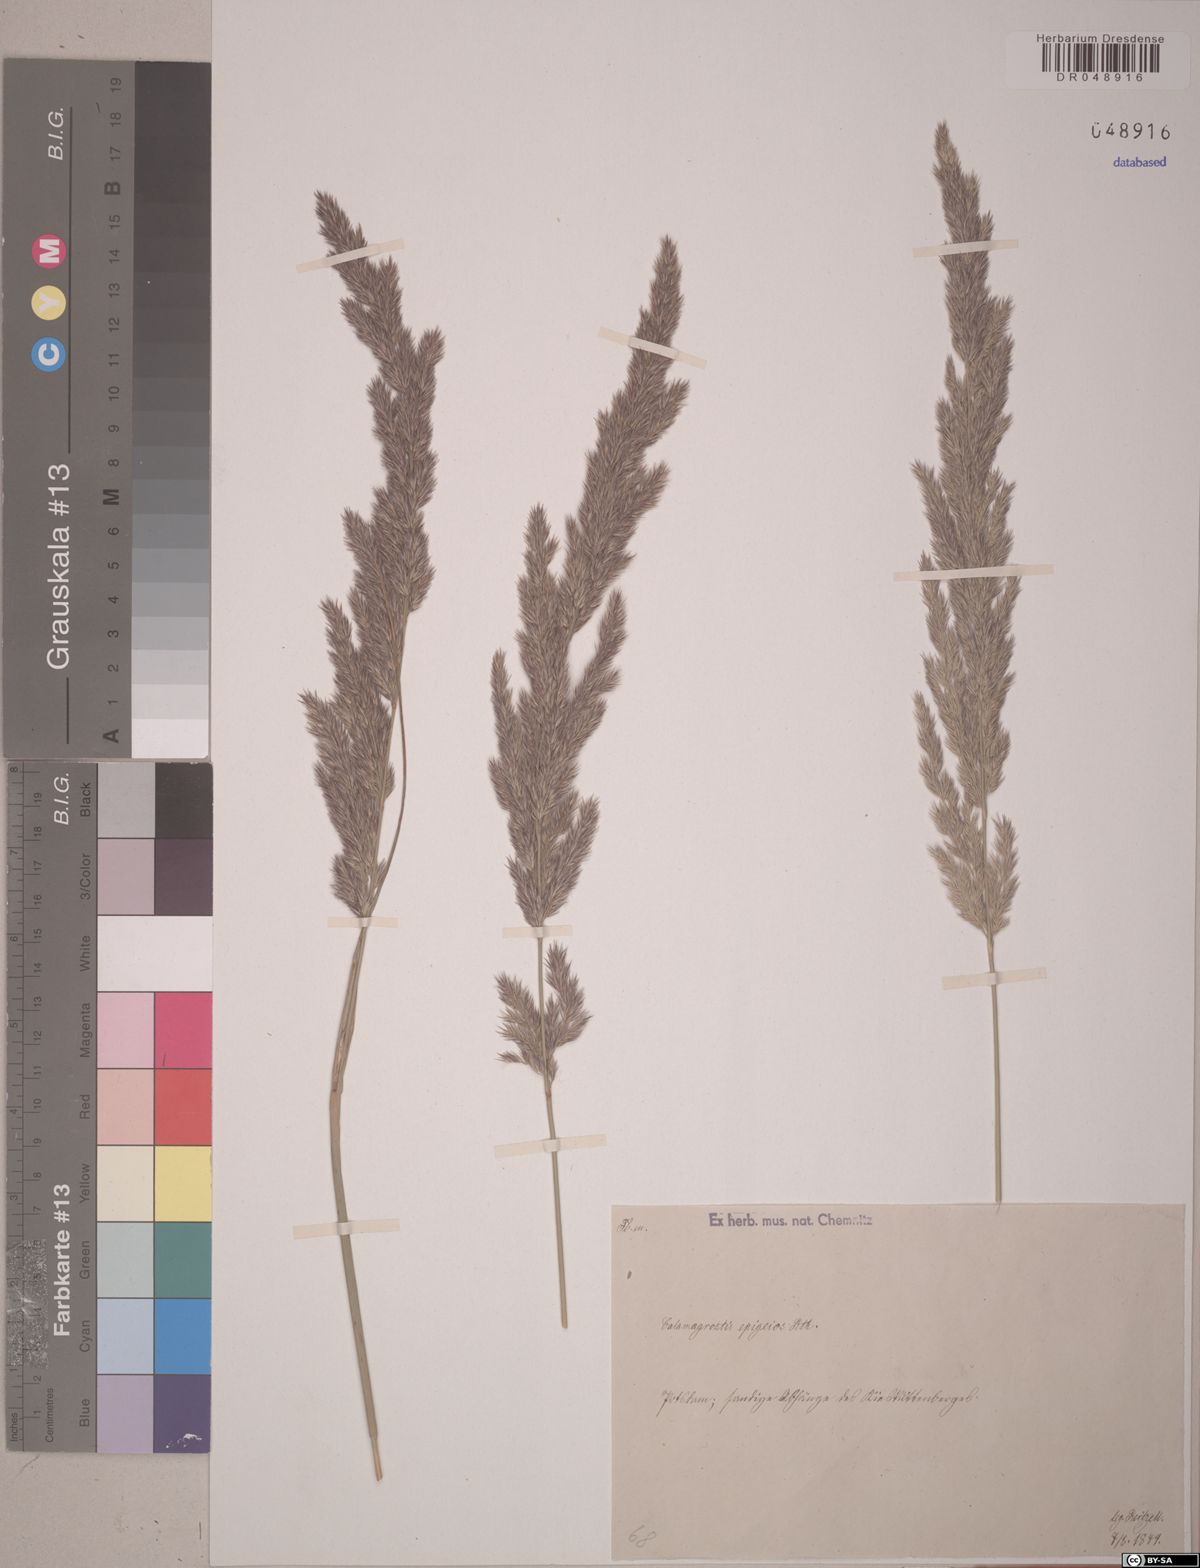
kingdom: Plantae
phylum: Tracheophyta
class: Liliopsida
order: Poales
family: Poaceae
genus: Calamagrostis
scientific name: Calamagrostis epigejos
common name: Wood small-reed
